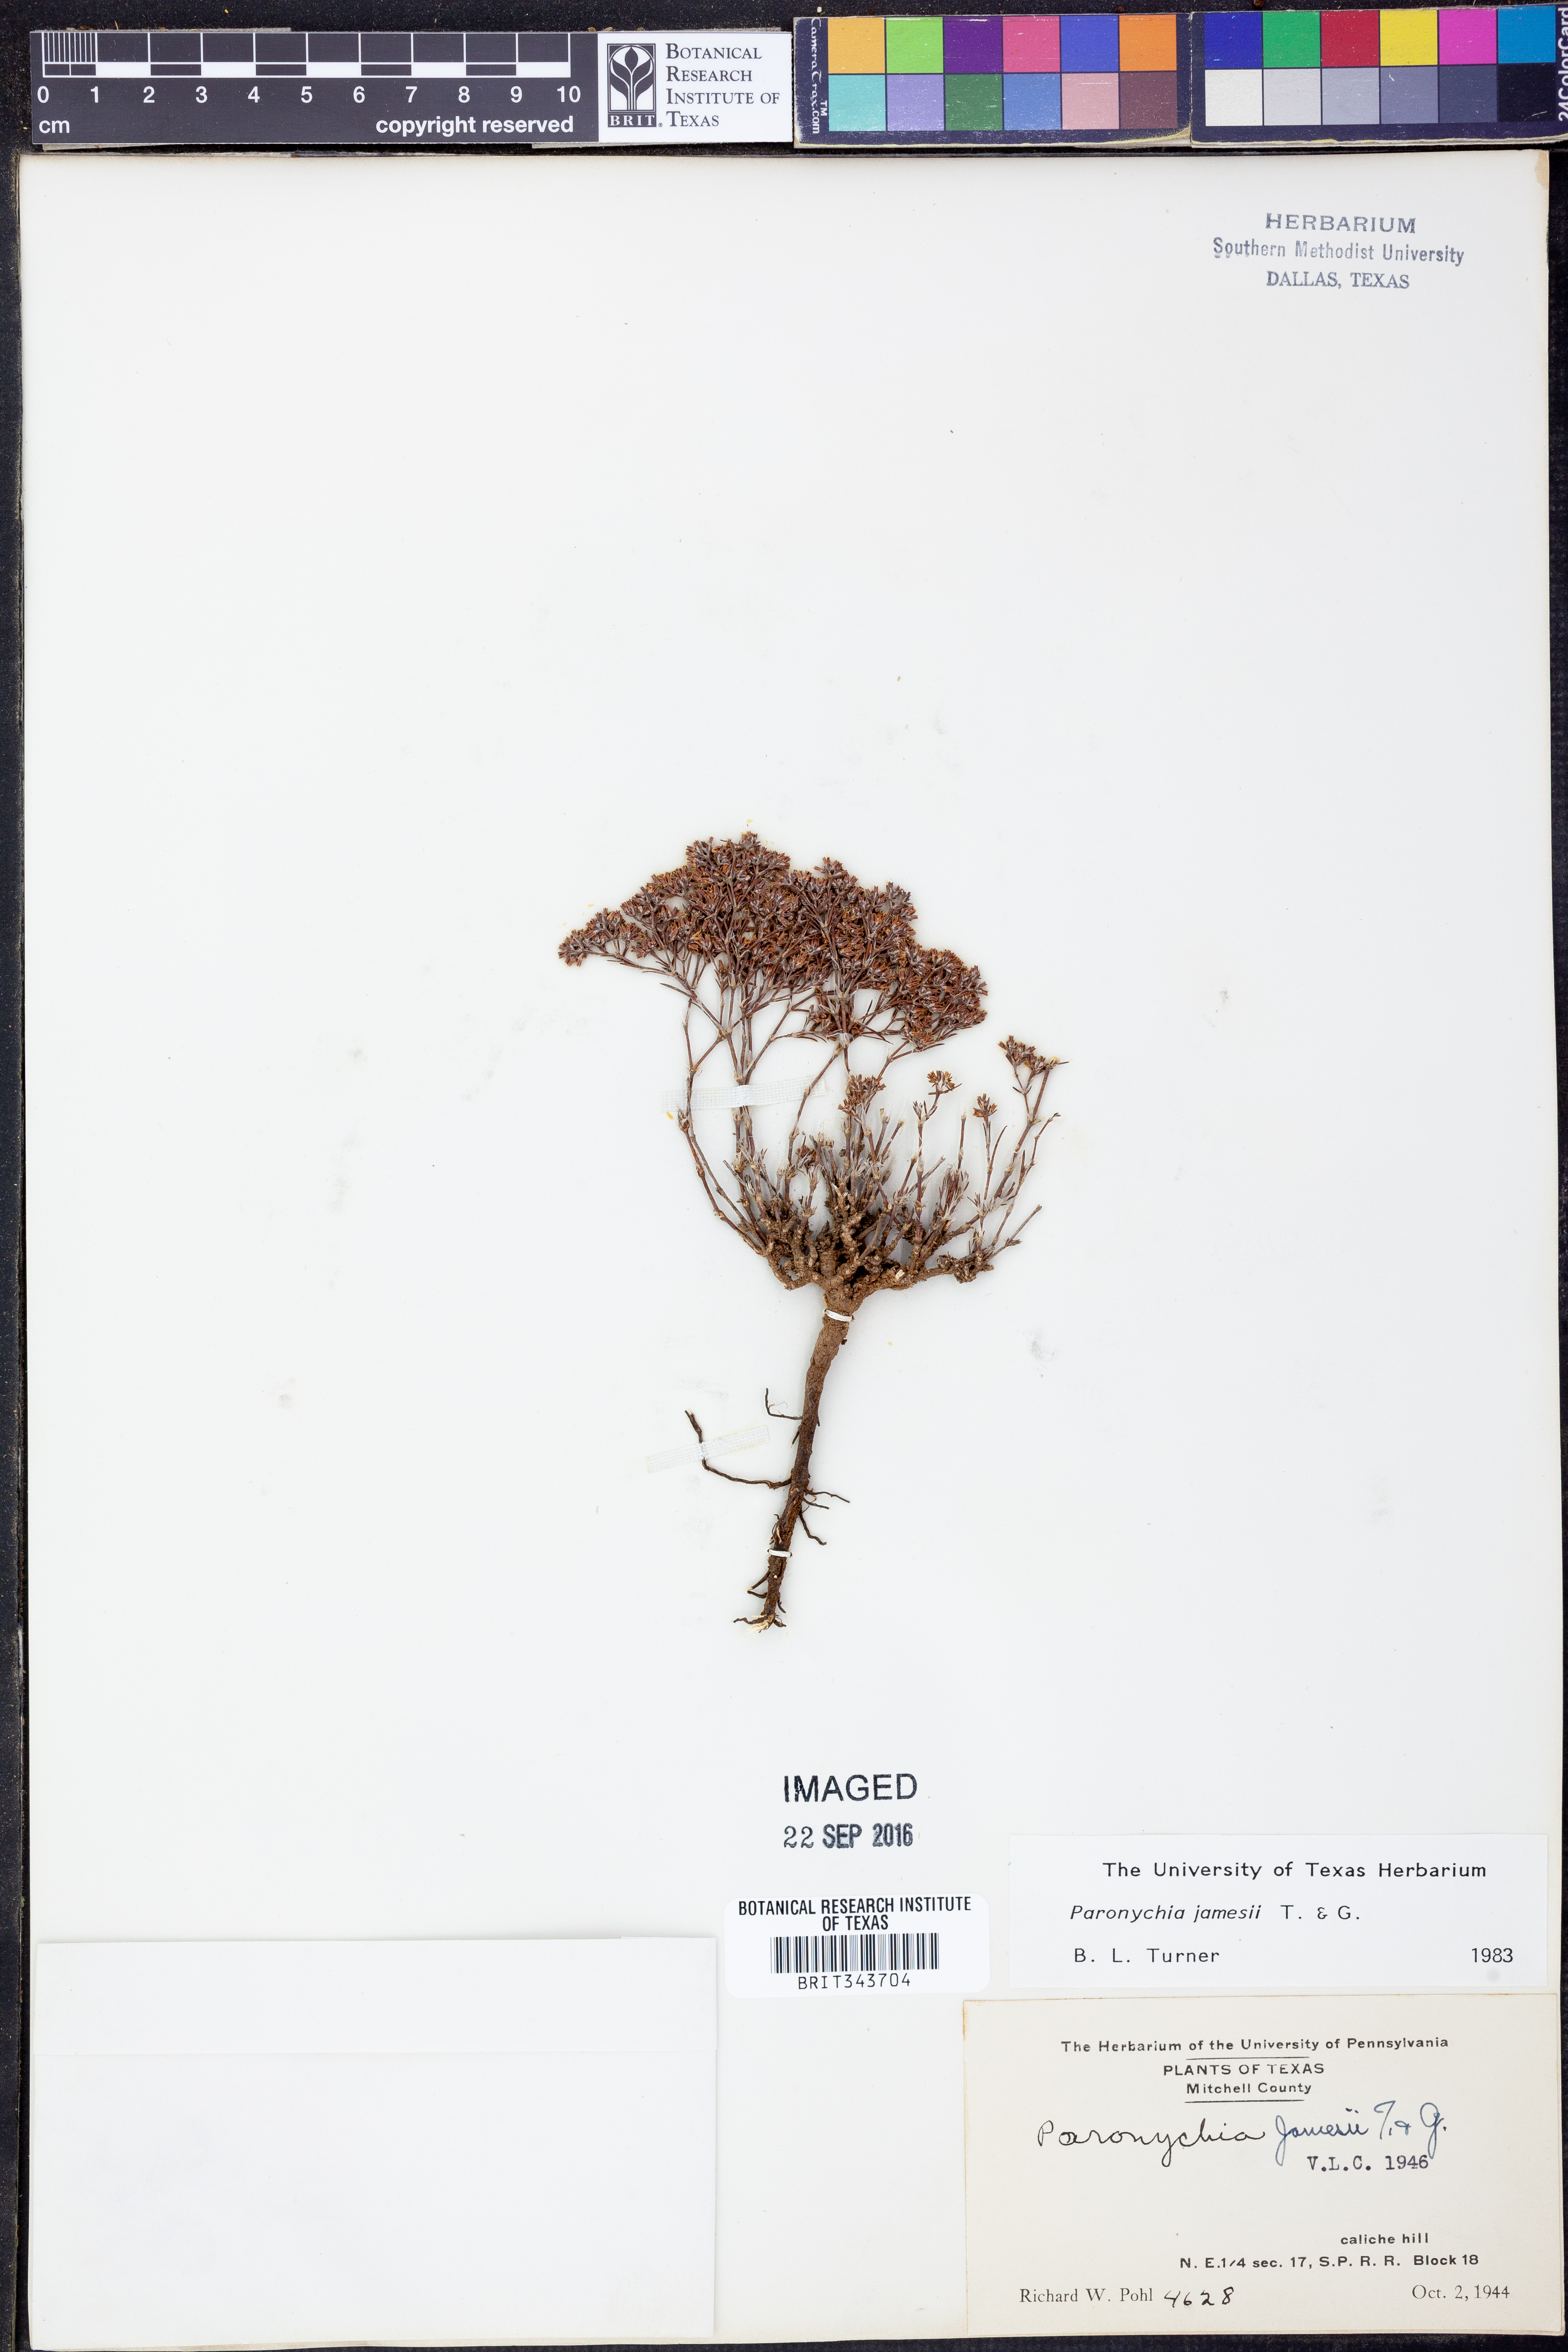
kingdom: Plantae
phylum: Tracheophyta
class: Magnoliopsida
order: Caryophyllales
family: Caryophyllaceae
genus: Paronychia
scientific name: Paronychia jamesii
